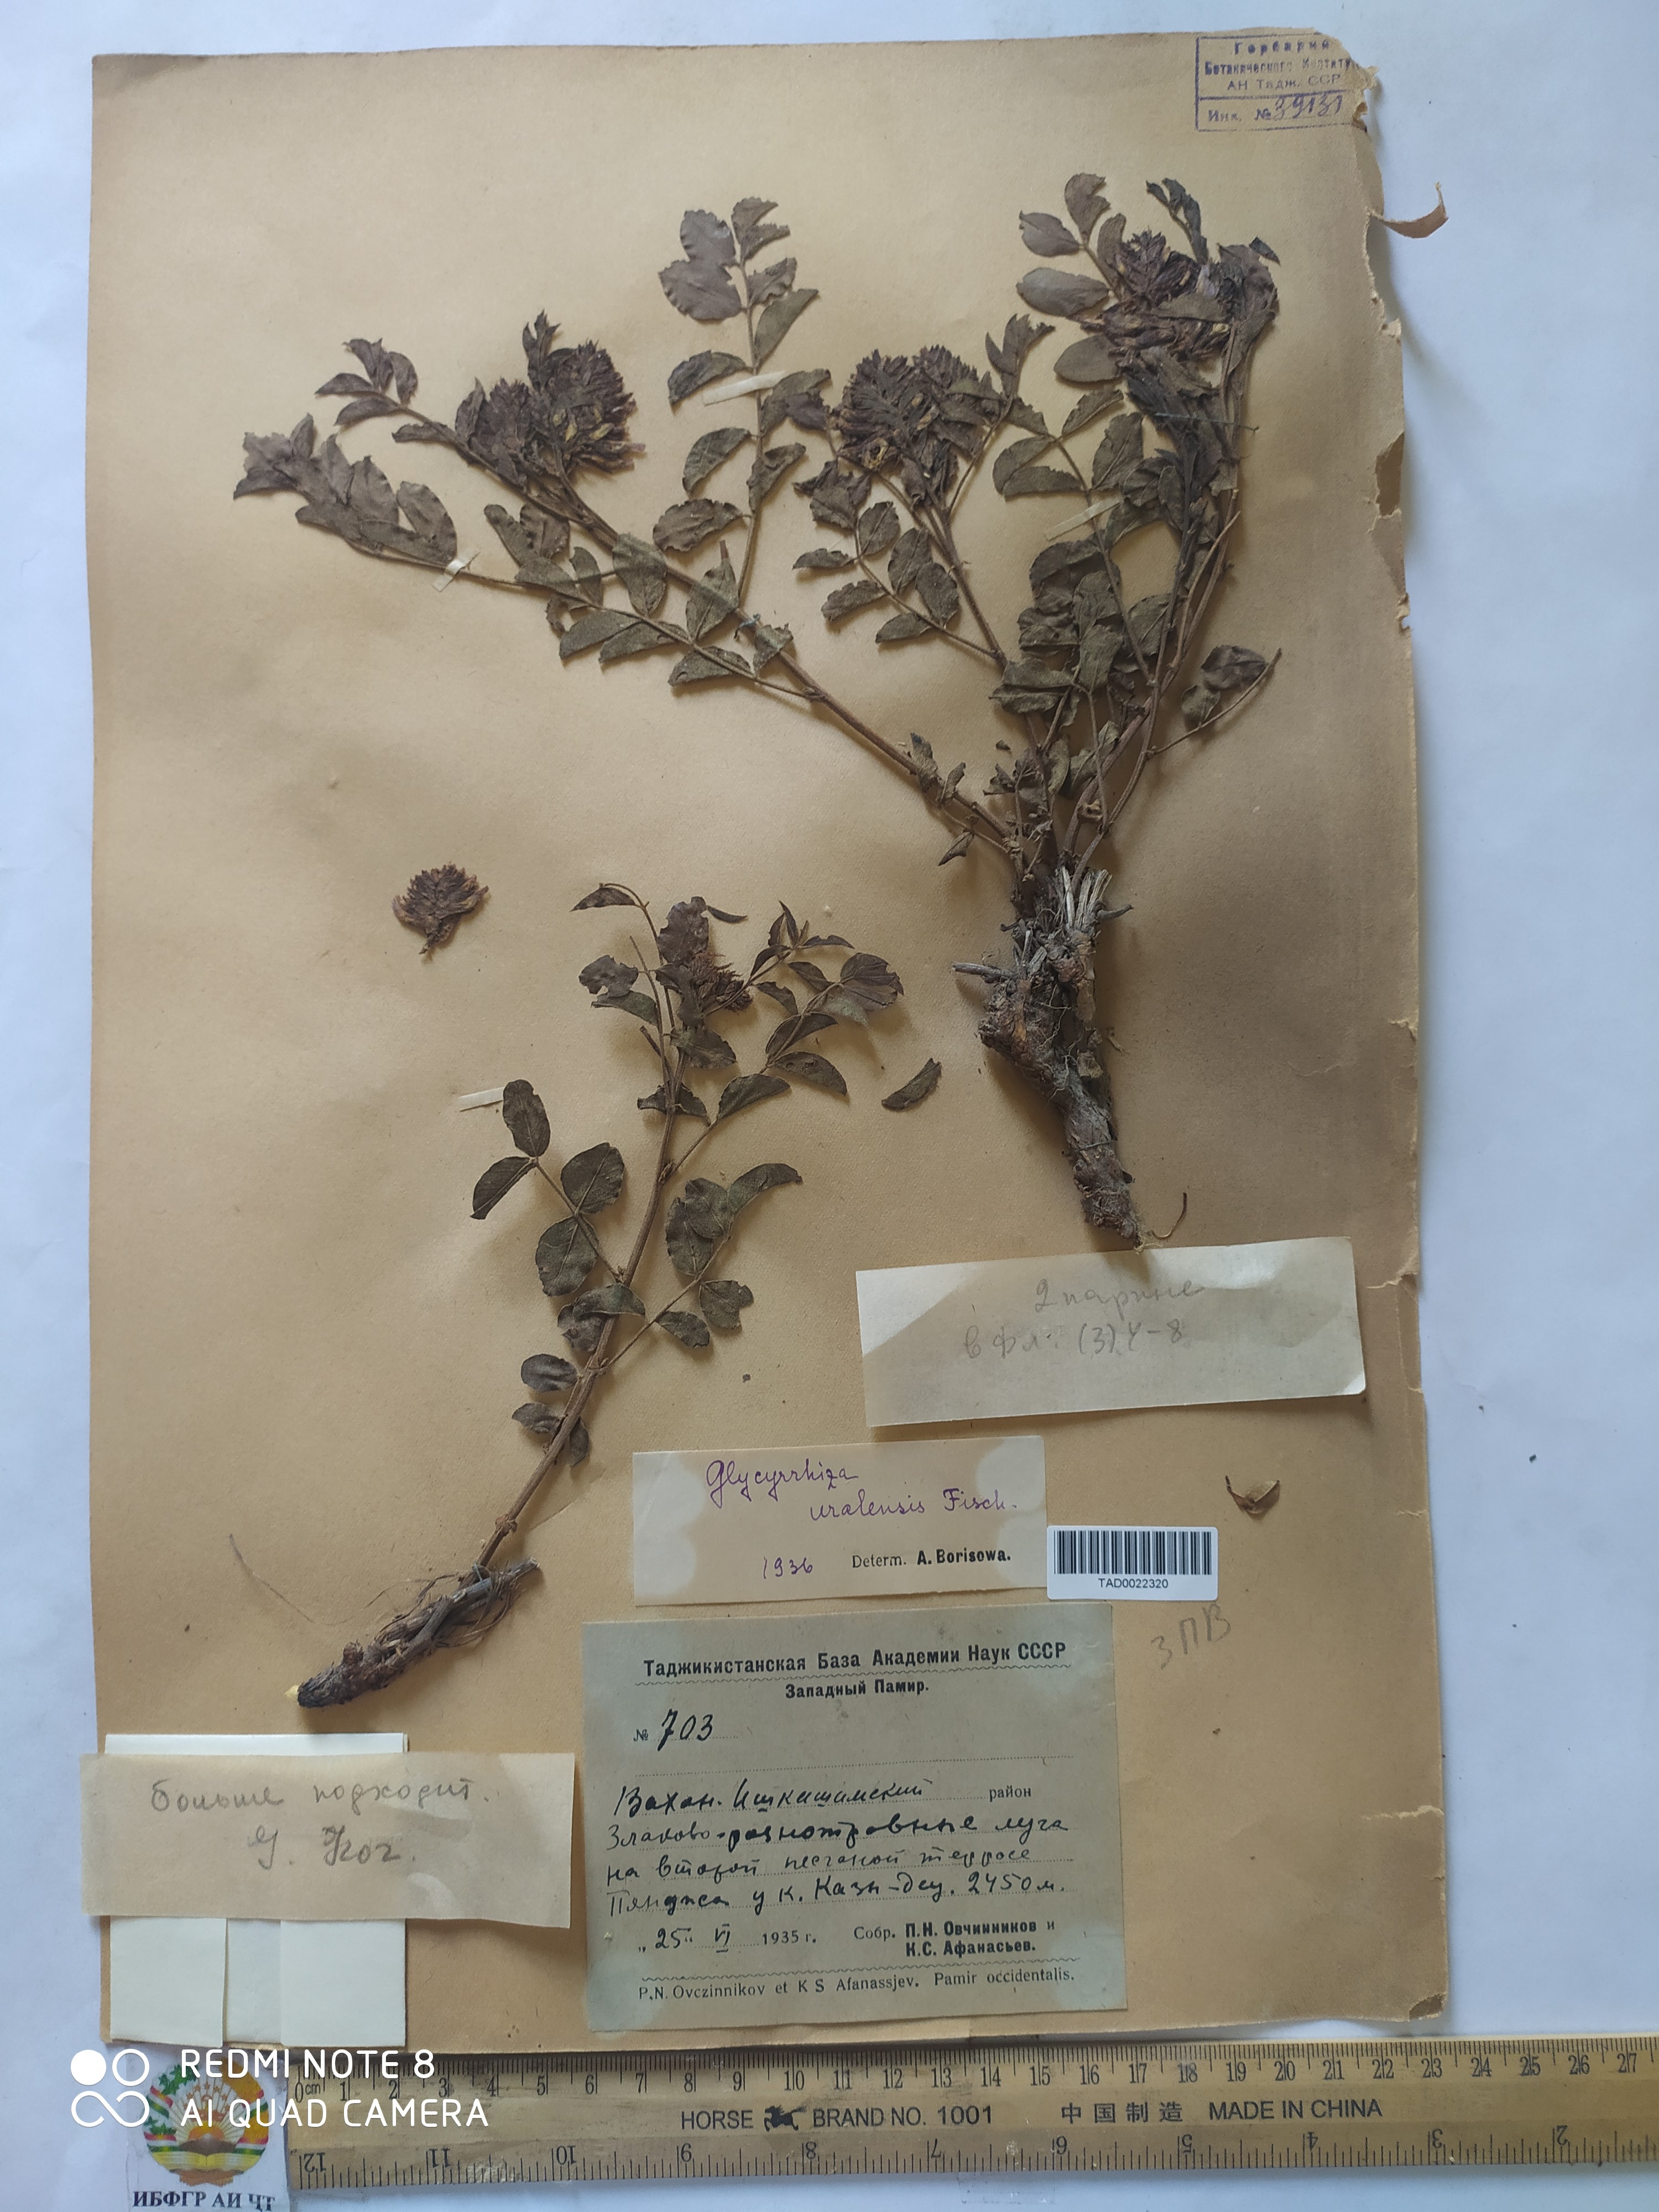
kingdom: Plantae
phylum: Tracheophyta
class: Magnoliopsida
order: Fabales
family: Fabaceae
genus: Glycyrrhiza
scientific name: Glycyrrhiza uralensis
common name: Chinese licorice
